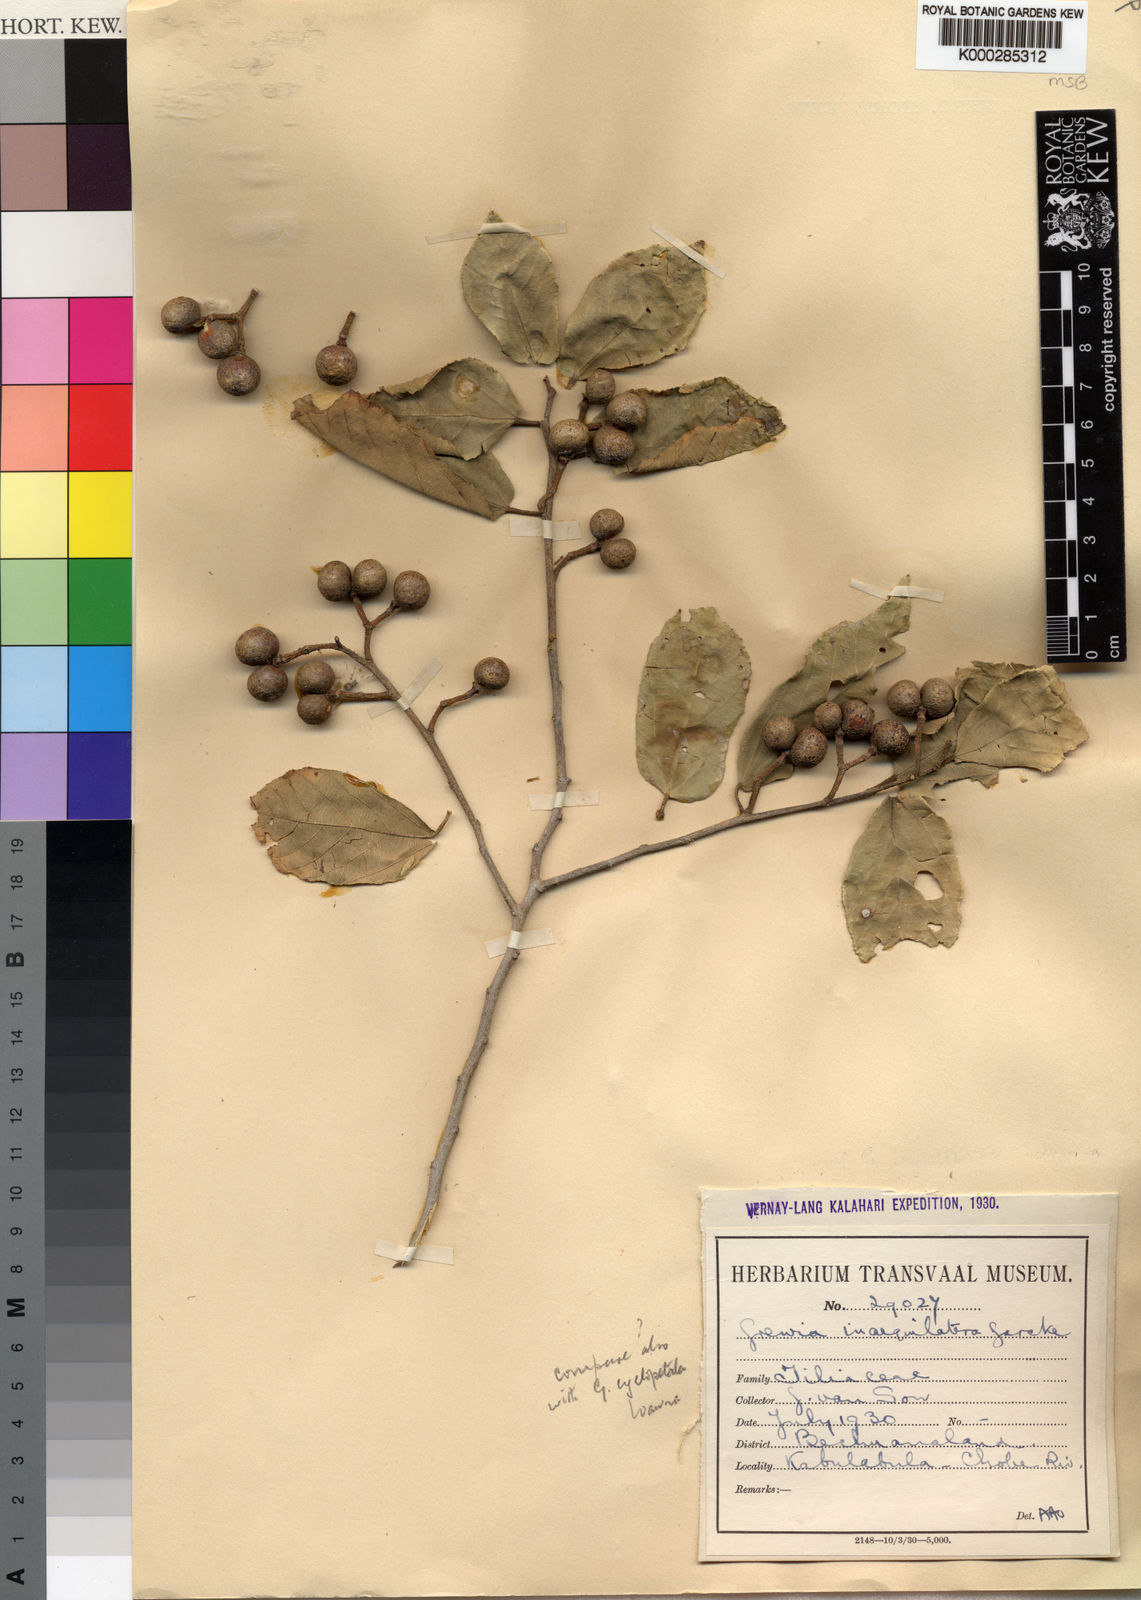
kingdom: Plantae
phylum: Tracheophyta
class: Magnoliopsida
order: Malvales
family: Malvaceae
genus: Grewia
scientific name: Grewia inaequilatera
